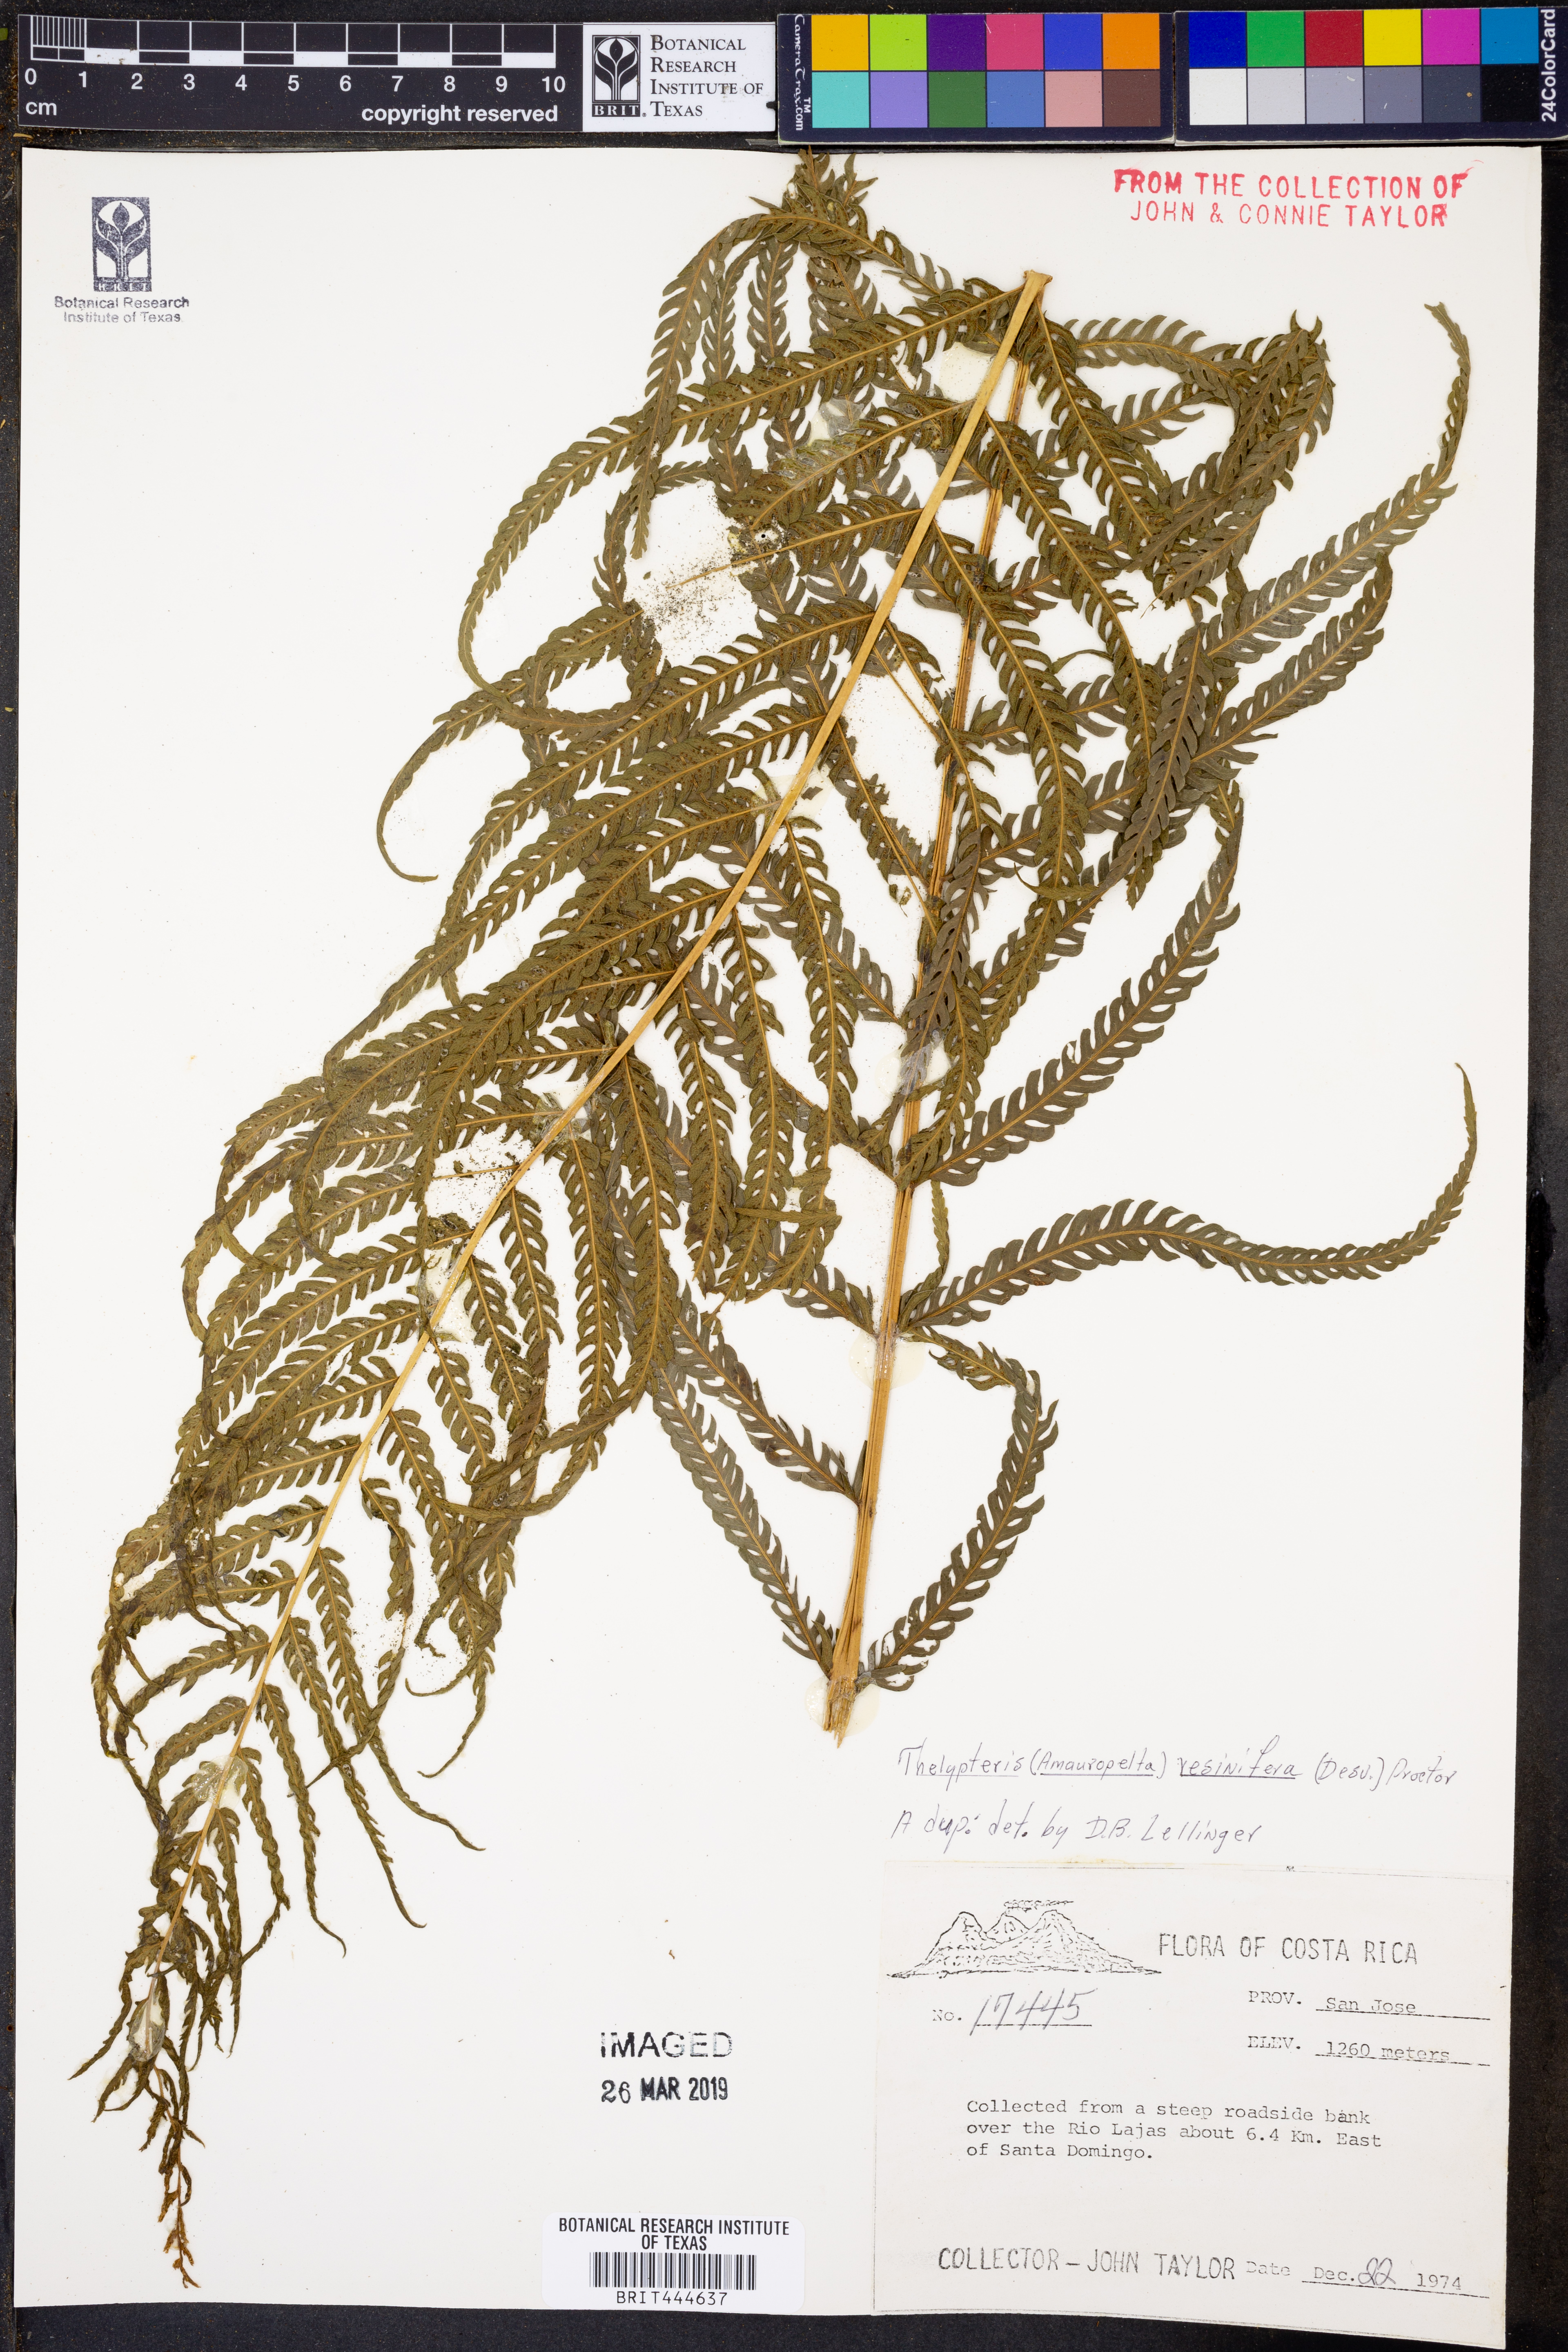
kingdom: Plantae
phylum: Tracheophyta
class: Polypodiopsida
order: Polypodiales
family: Thelypteridaceae
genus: Amauropelta
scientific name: Amauropelta resinifera
